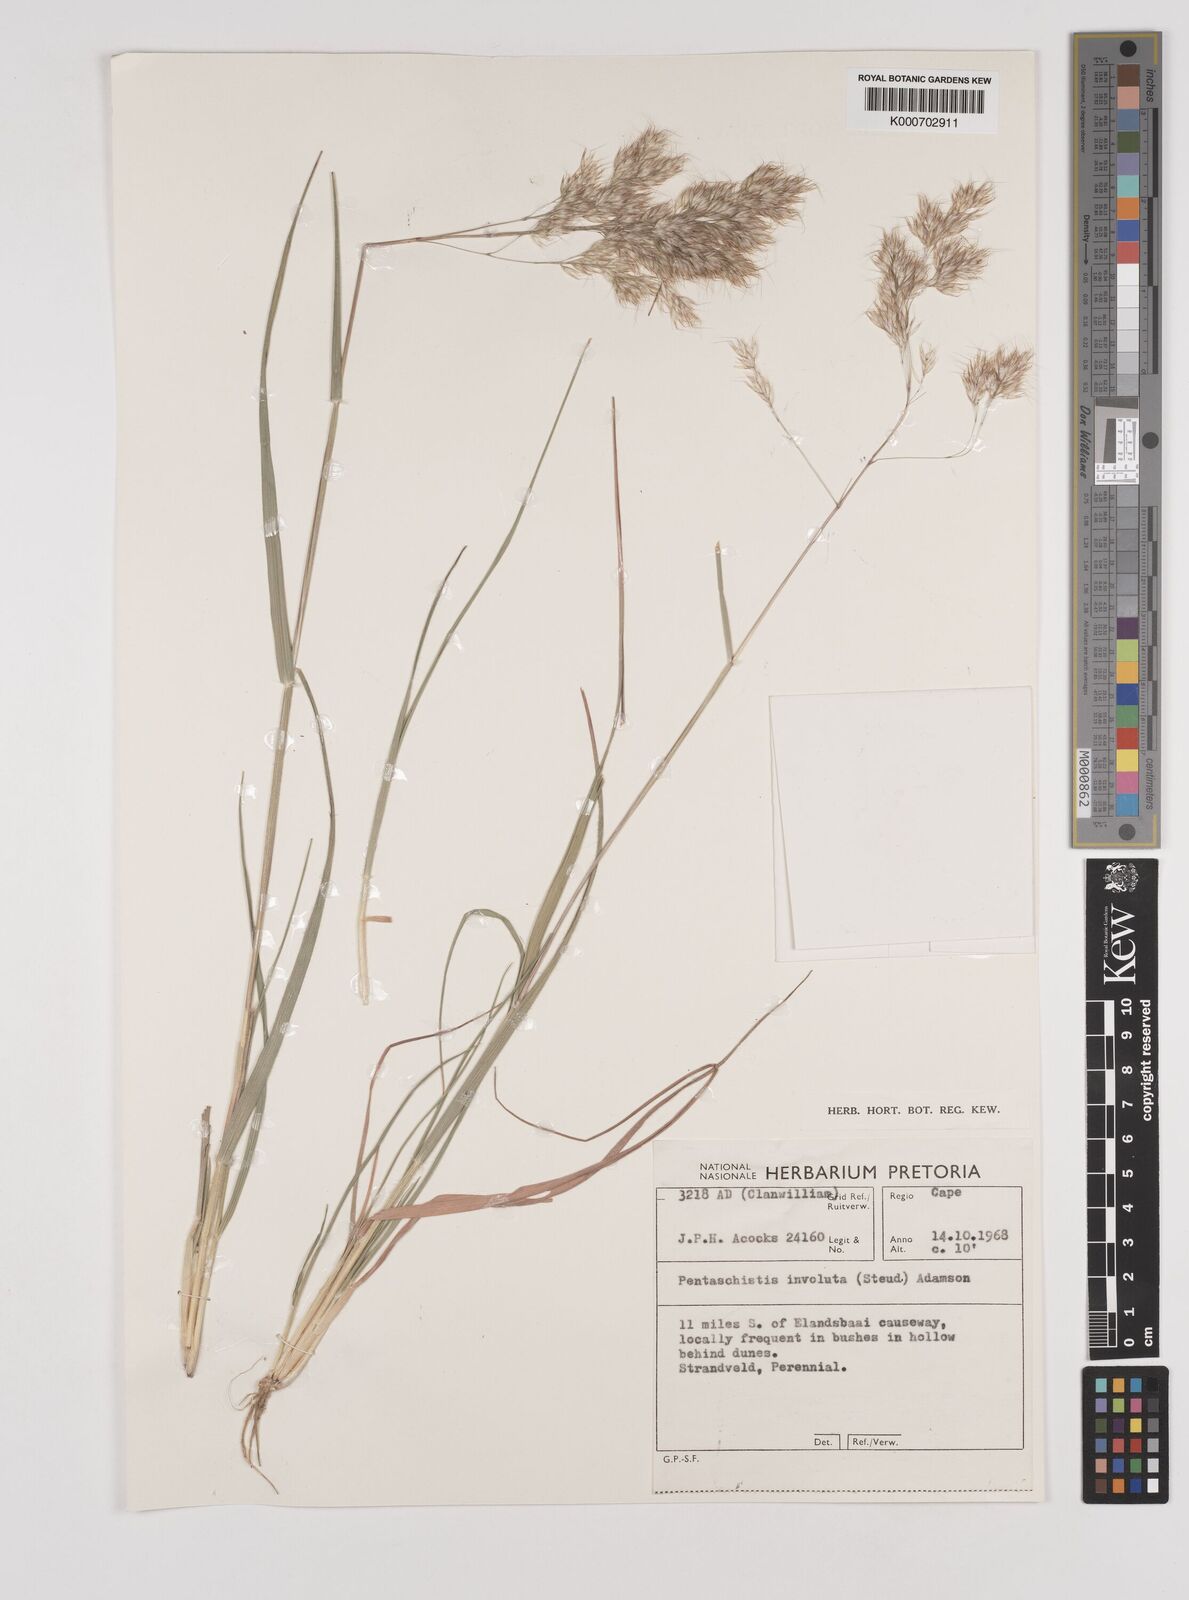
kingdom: Plantae
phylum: Tracheophyta
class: Liliopsida
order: Poales
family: Poaceae
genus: Pentameris
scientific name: Pentameris barbata
